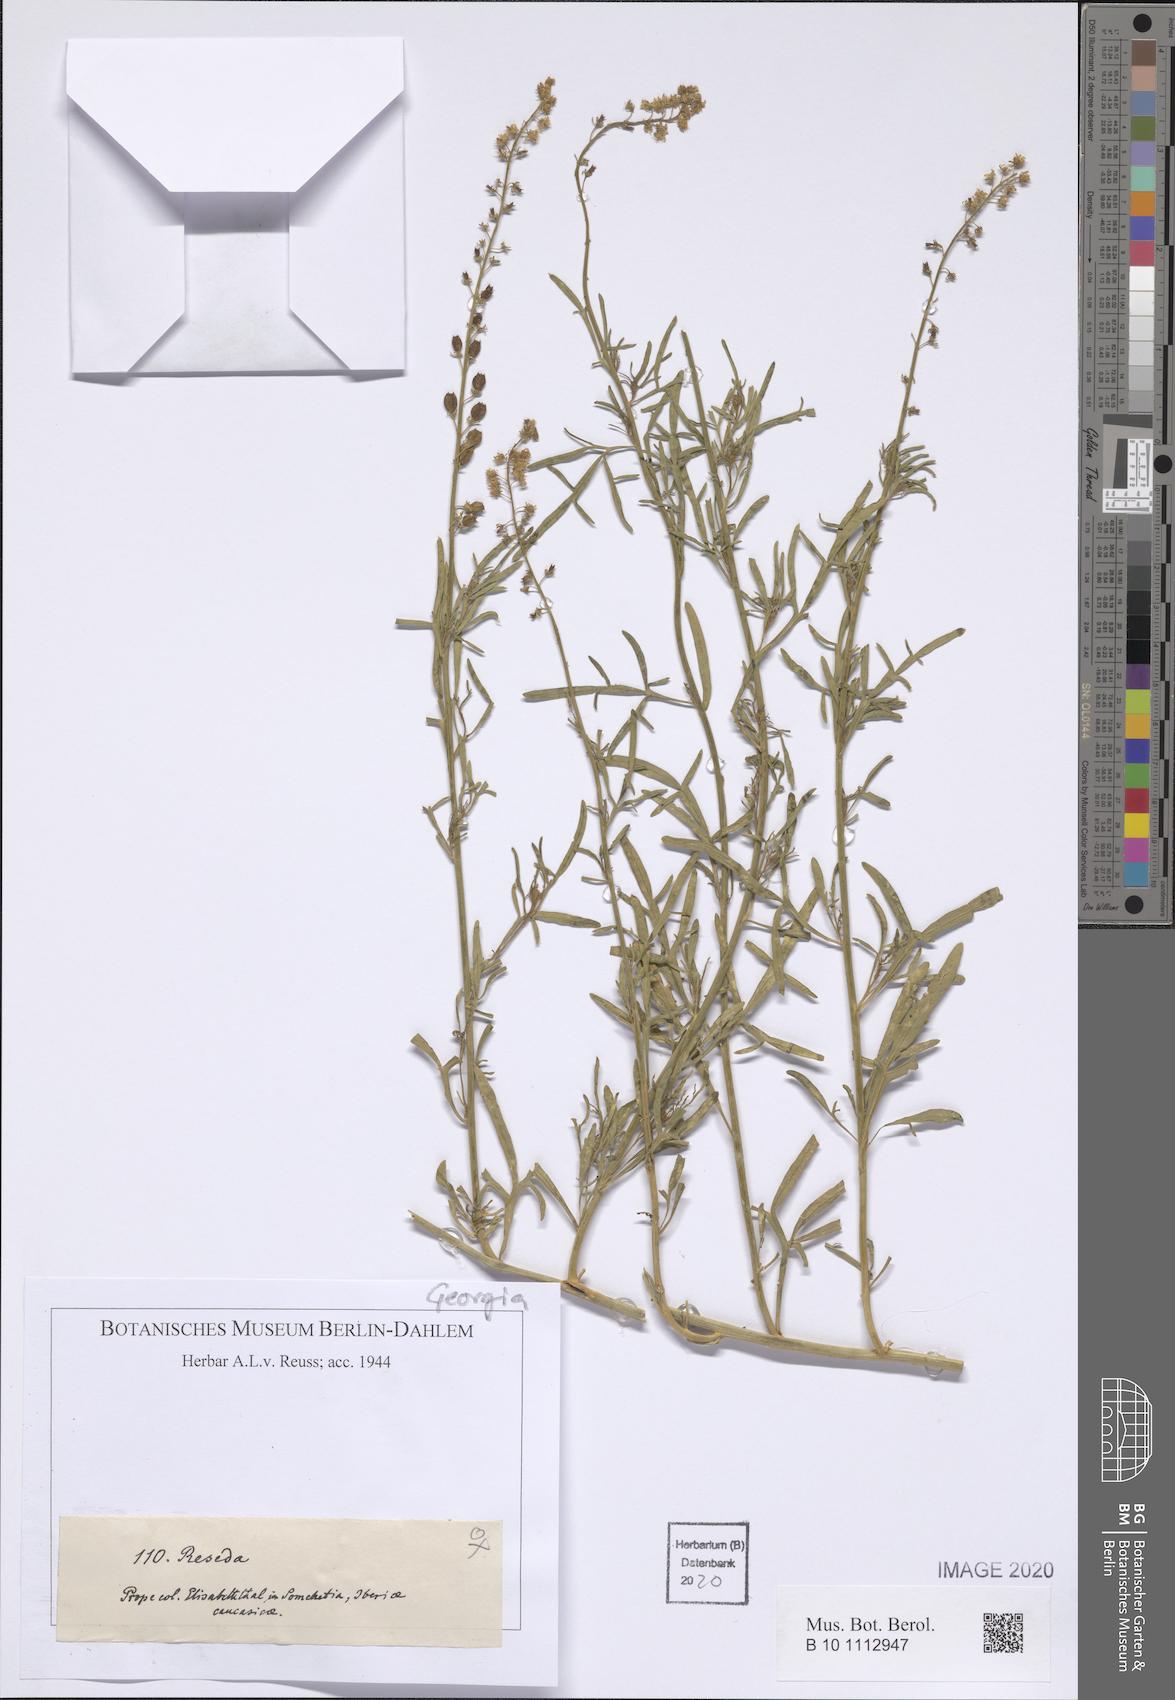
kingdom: Plantae
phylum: Tracheophyta
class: Magnoliopsida
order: Brassicales
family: Resedaceae
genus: Reseda
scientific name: Reseda
